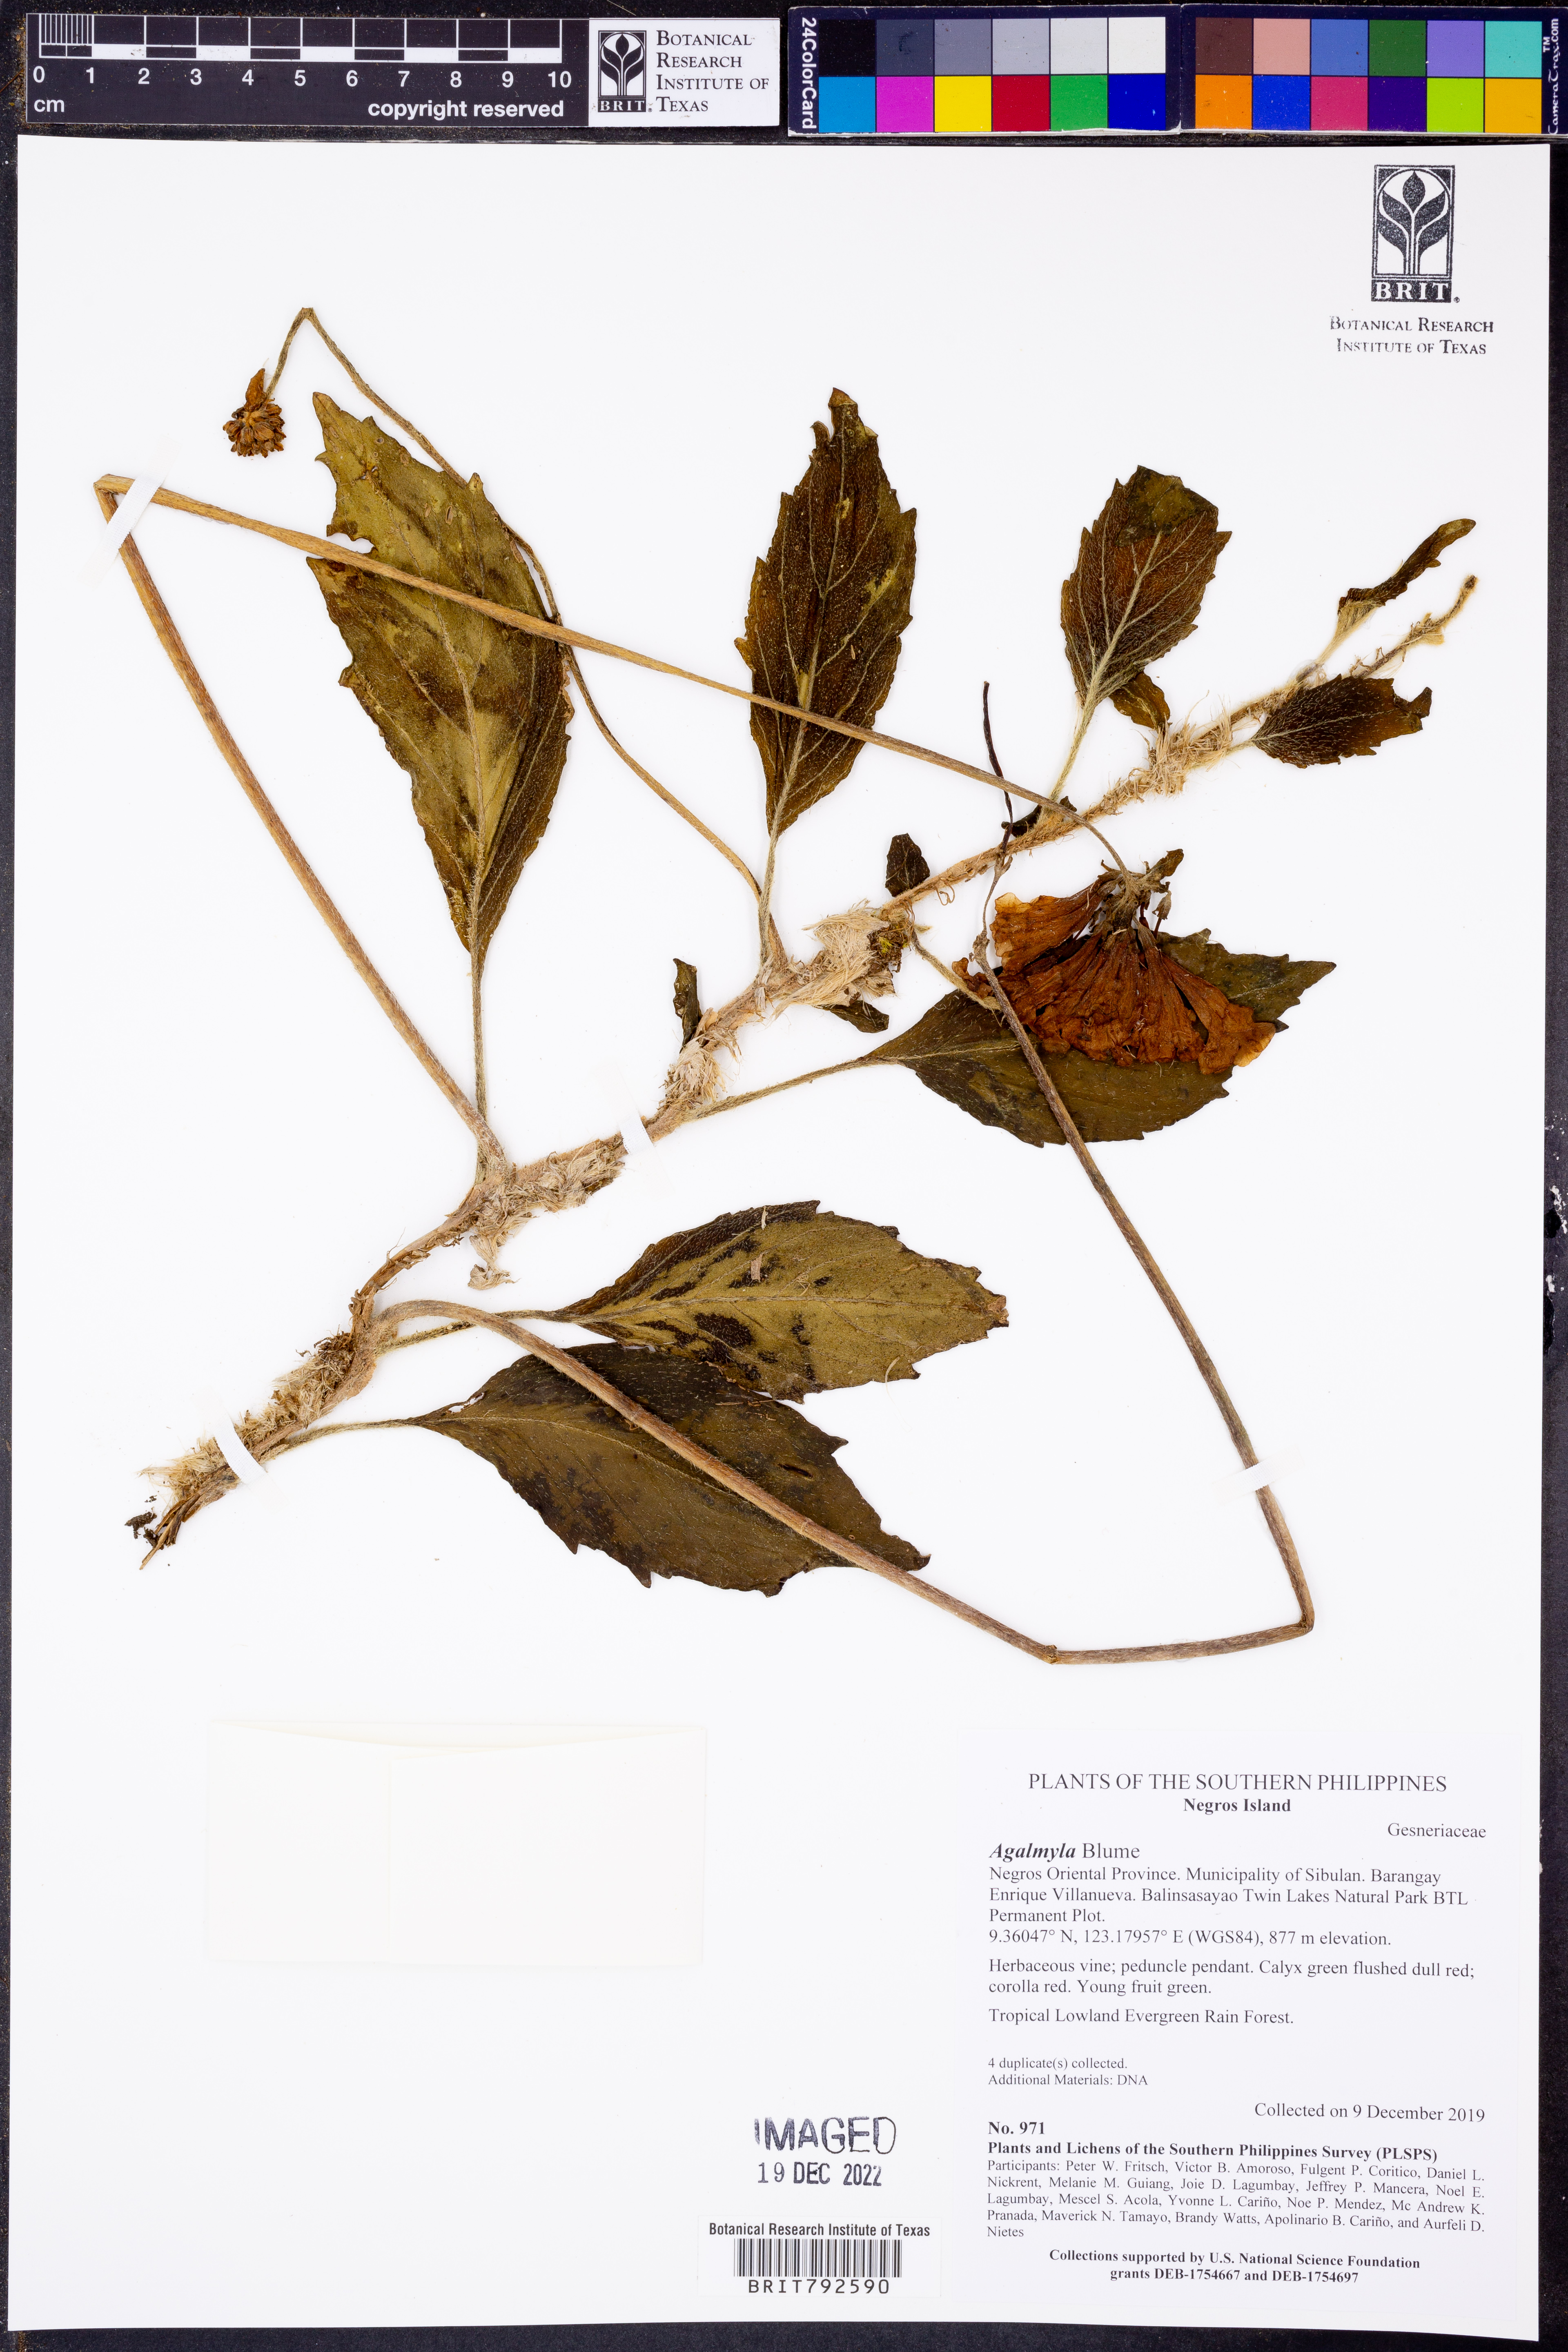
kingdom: Plantae
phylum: Tracheophyta
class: Magnoliopsida
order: Lamiales
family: Gesneriaceae
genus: Agalmyla
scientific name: Agalmyla
